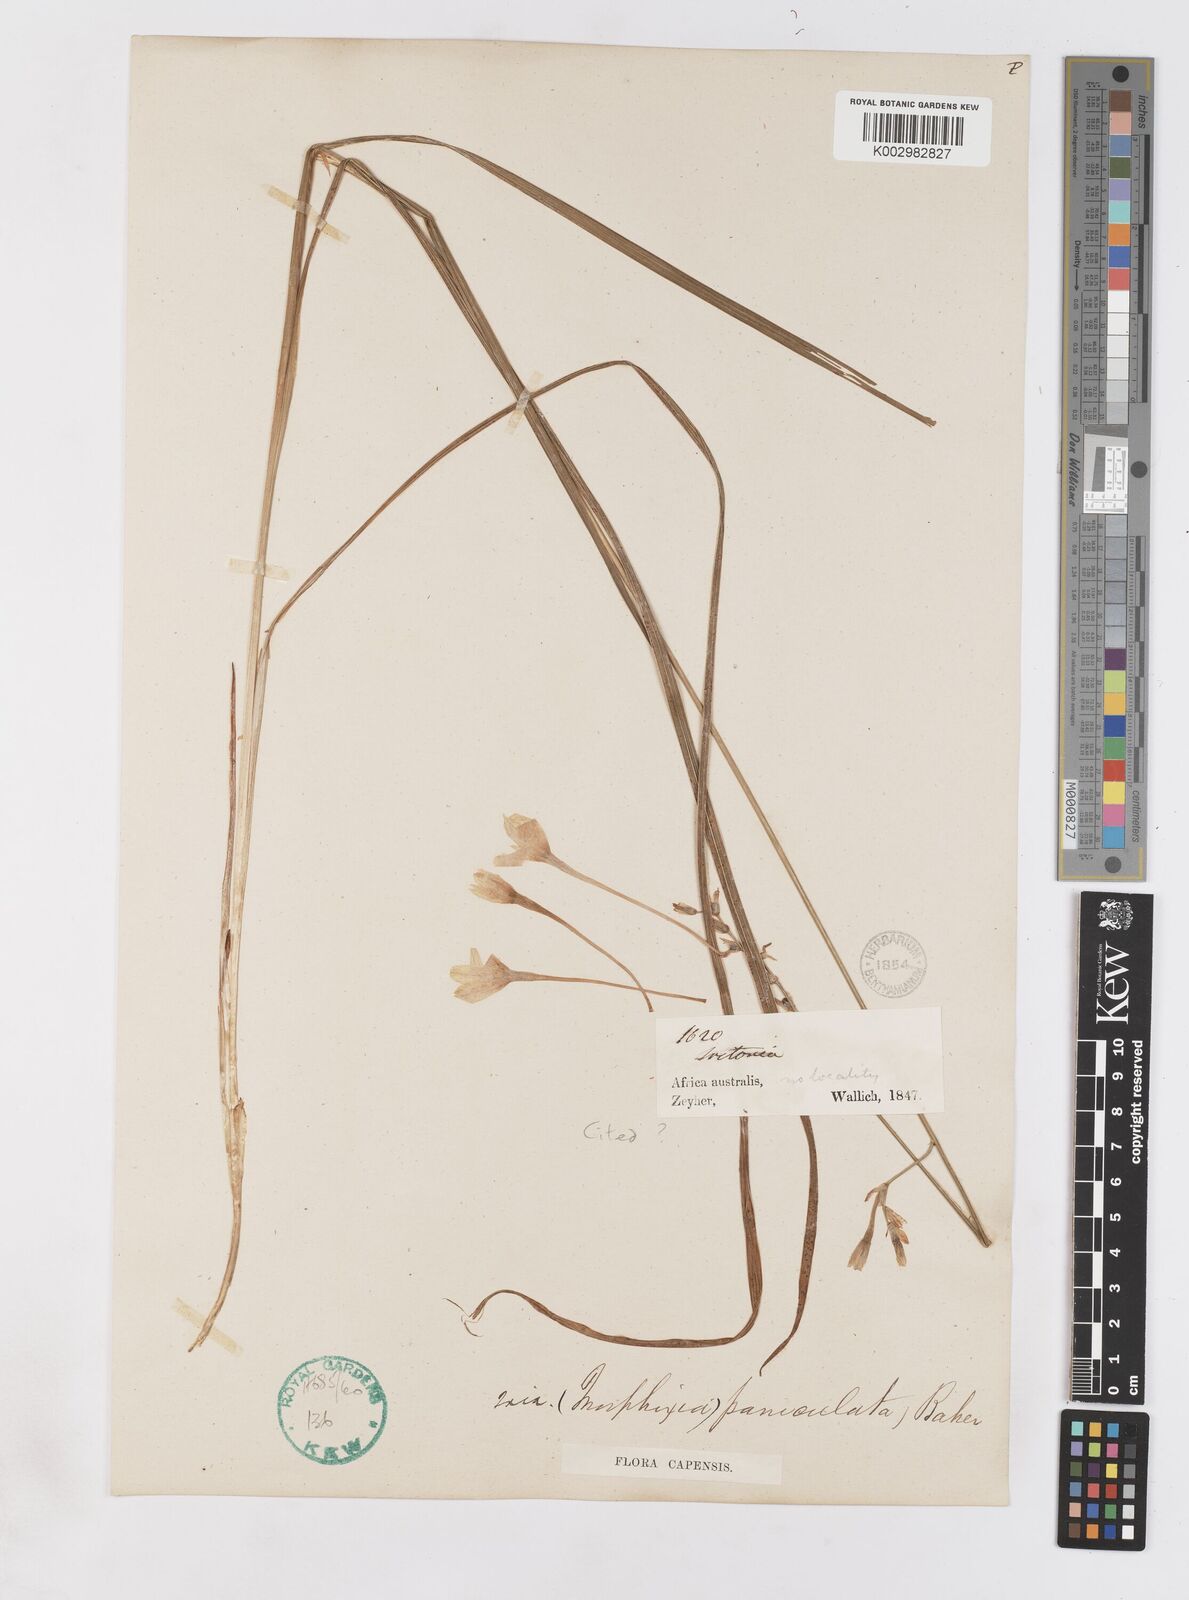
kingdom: Plantae
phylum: Tracheophyta
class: Liliopsida
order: Asparagales
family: Iridaceae
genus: Ixia
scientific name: Ixia paniculata
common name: Tubular corn-lily
